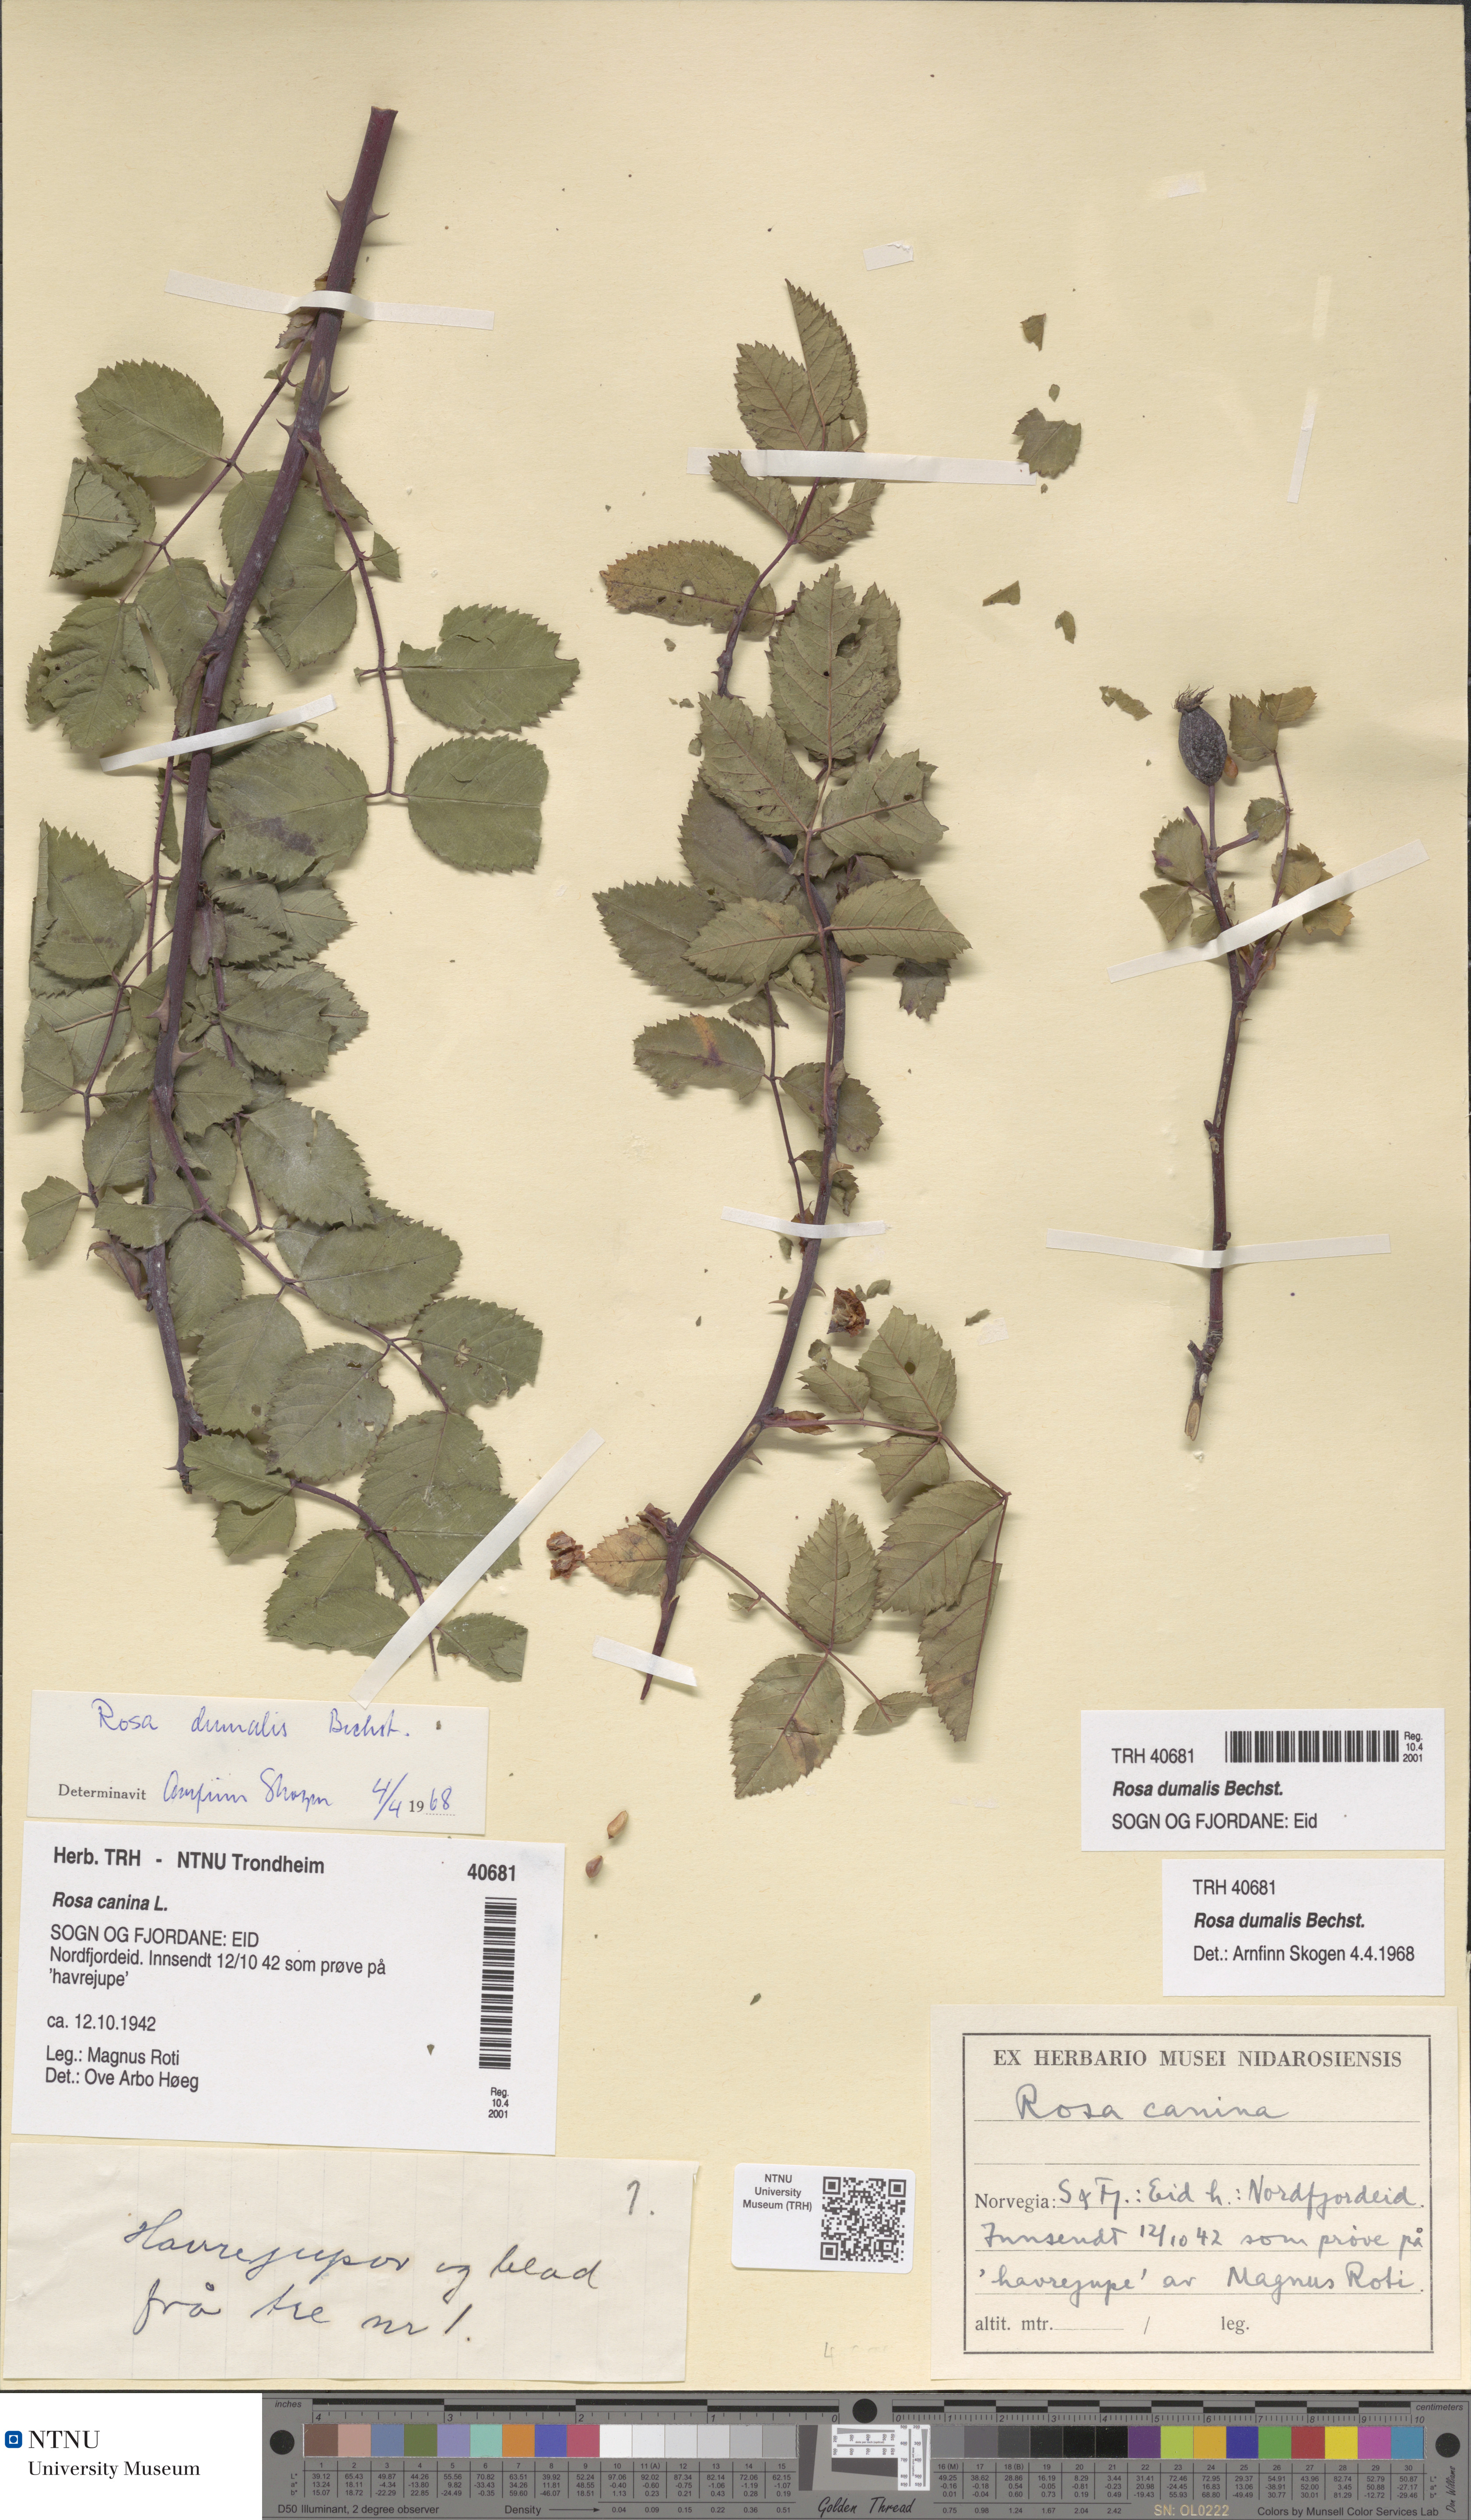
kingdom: Plantae
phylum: Tracheophyta
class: Magnoliopsida
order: Rosales
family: Rosaceae
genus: Rosa
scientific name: Rosa dumalis
